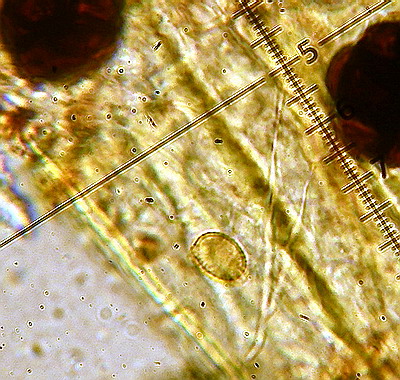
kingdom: Fungi
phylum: Basidiomycota
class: Agaricomycetes
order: Cantharellales
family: Tulasnellaceae
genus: Tulasnella
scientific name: Tulasnella violea
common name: violet ballonhinde
